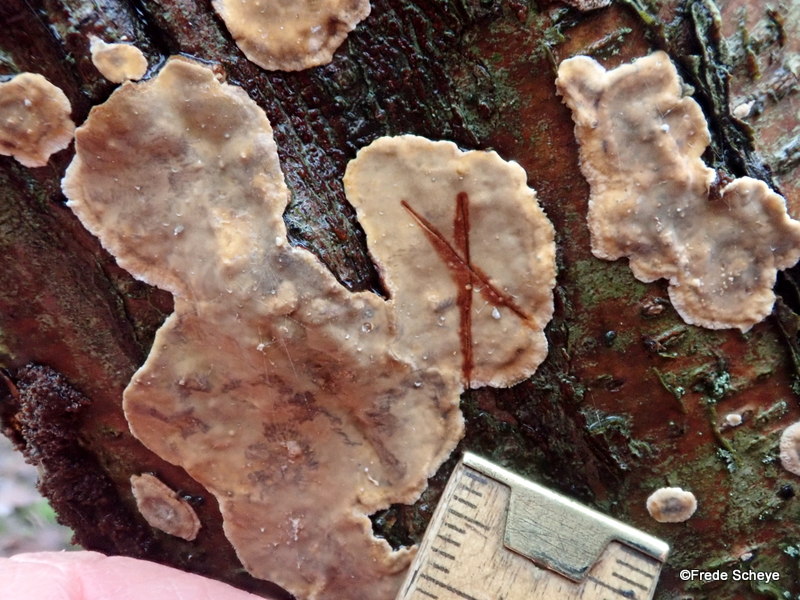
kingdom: Fungi
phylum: Basidiomycota
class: Agaricomycetes
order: Russulales
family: Stereaceae
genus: Stereum
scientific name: Stereum rugosum
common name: rynket lædersvamp
